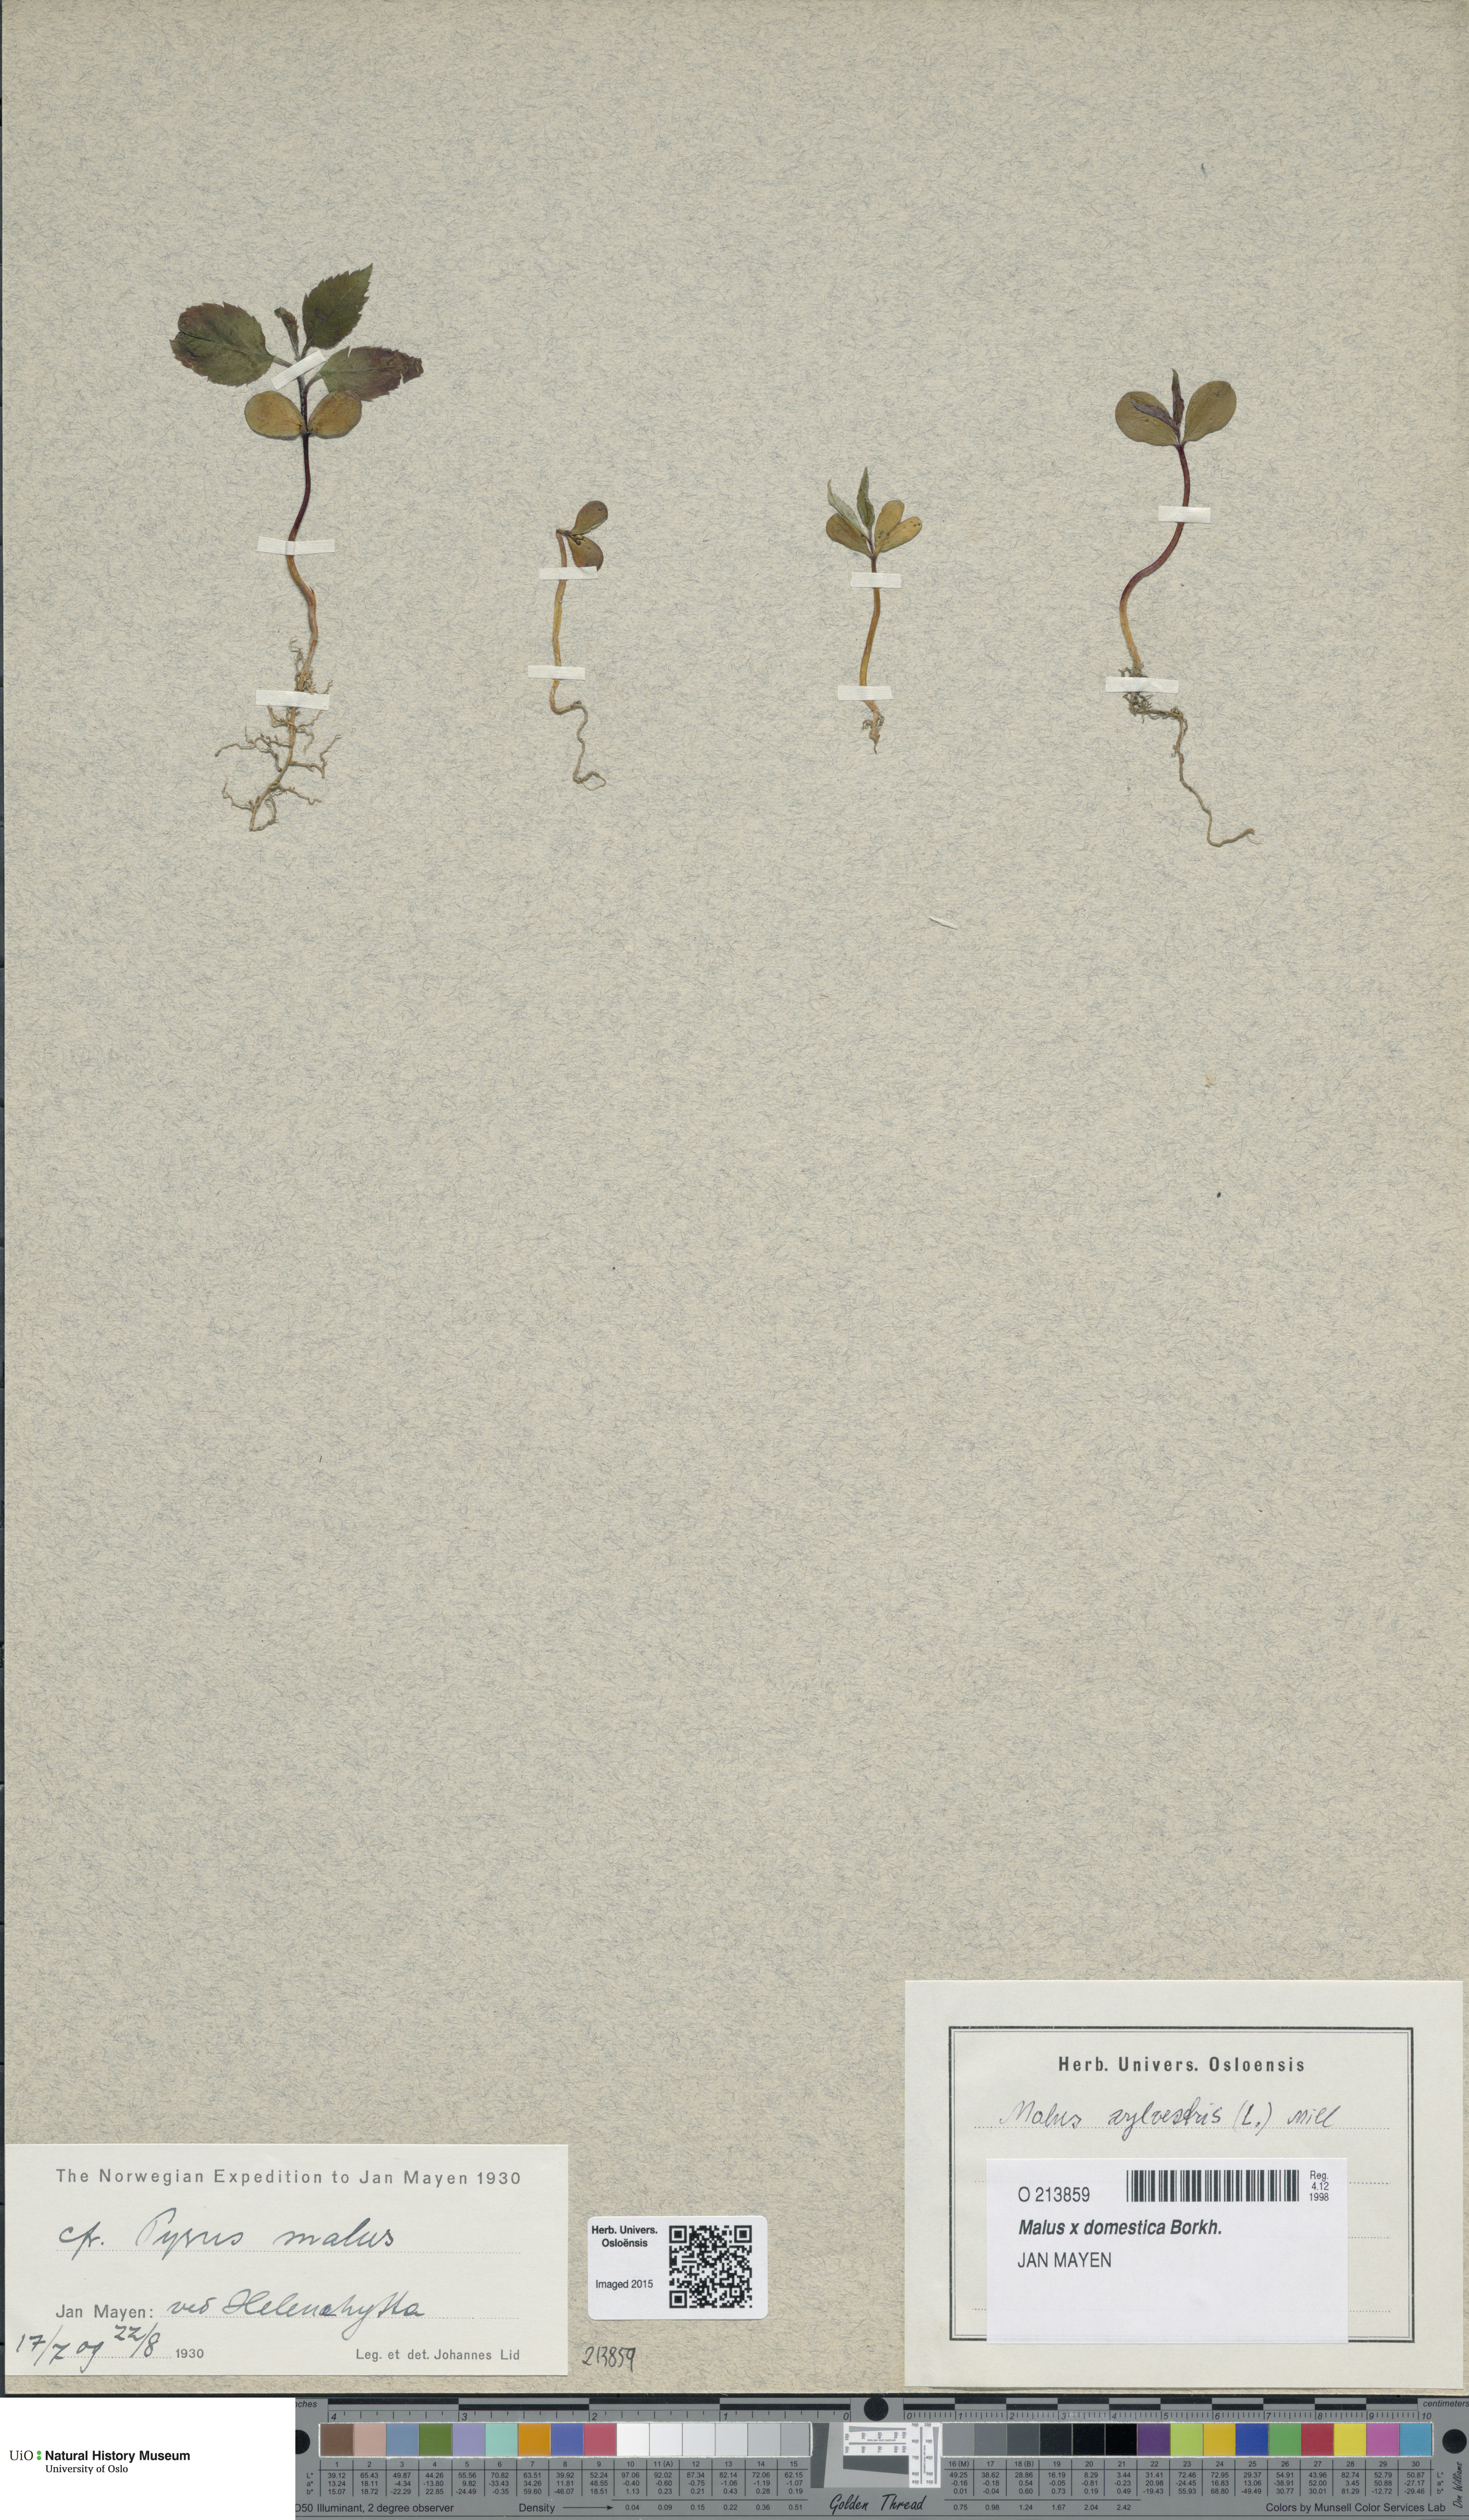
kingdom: Plantae
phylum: Tracheophyta
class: Magnoliopsida
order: Rosales
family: Rosaceae
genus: Malus
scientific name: Malus domestica
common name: Apple
